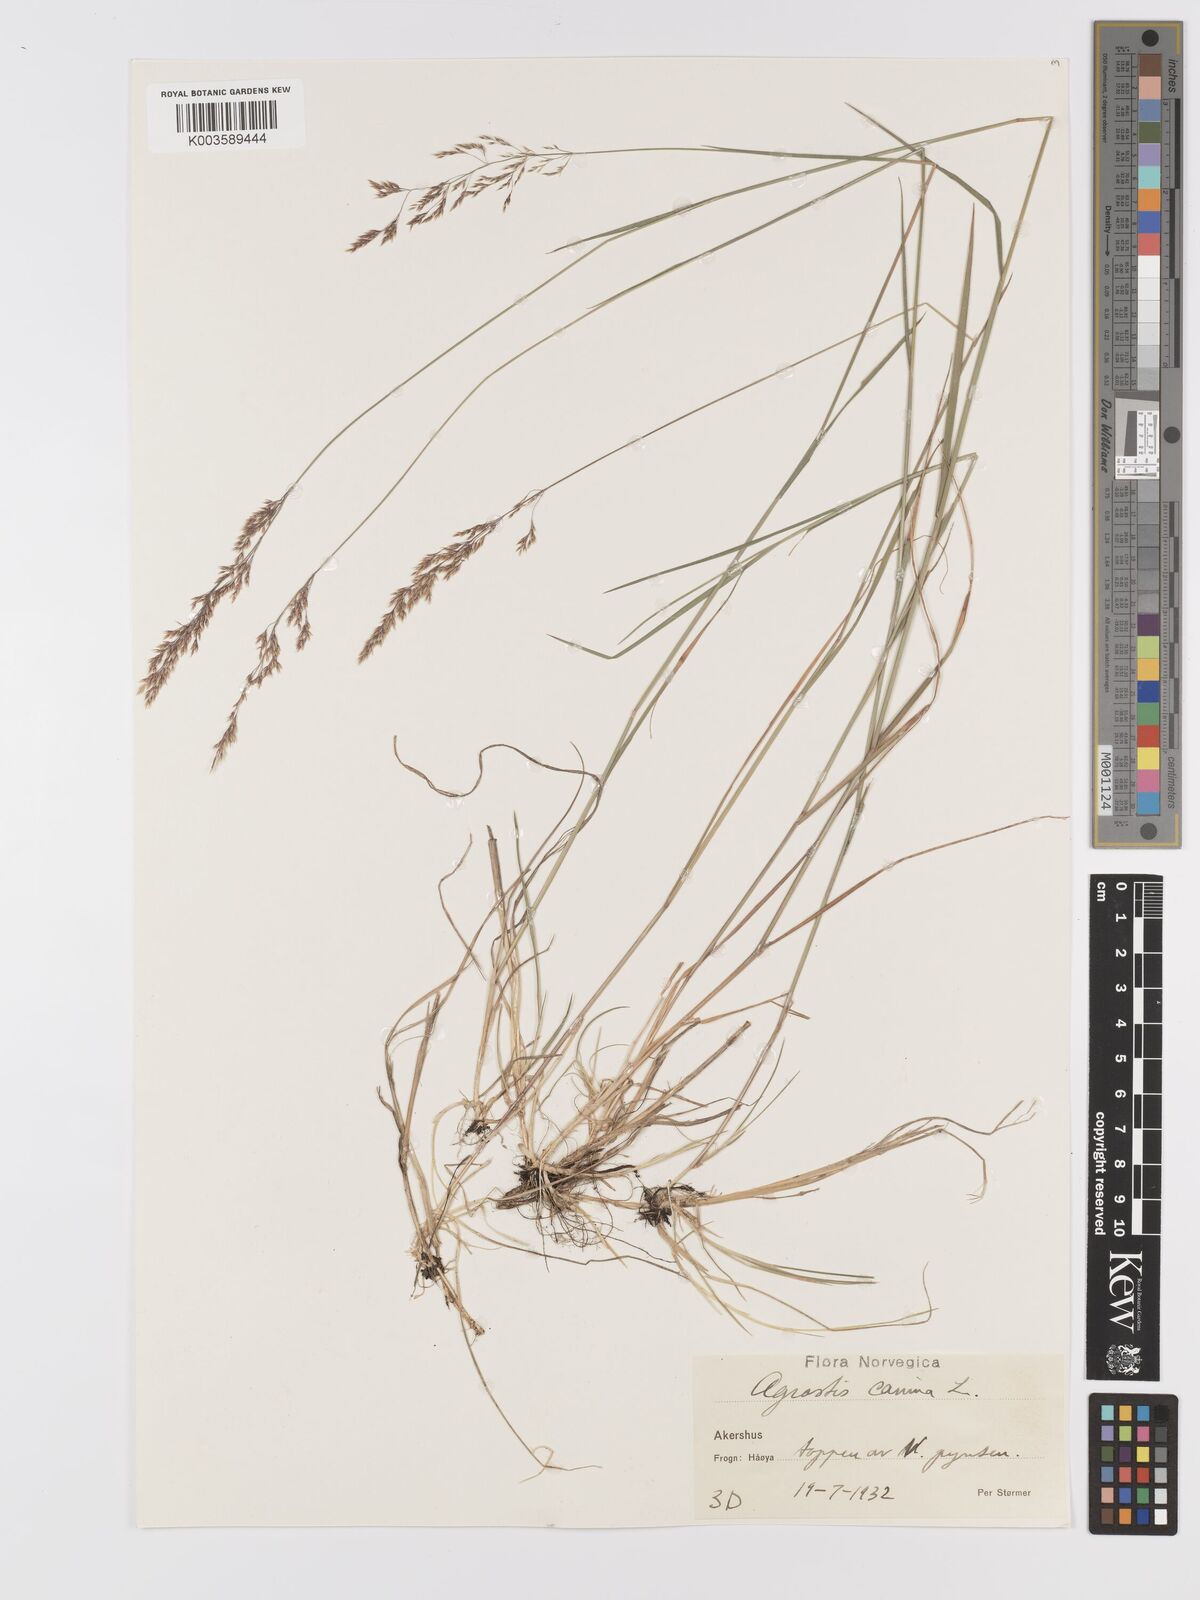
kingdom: Plantae
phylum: Tracheophyta
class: Liliopsida
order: Poales
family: Poaceae
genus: Agrostis
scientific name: Agrostis canina
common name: Velvet bent
